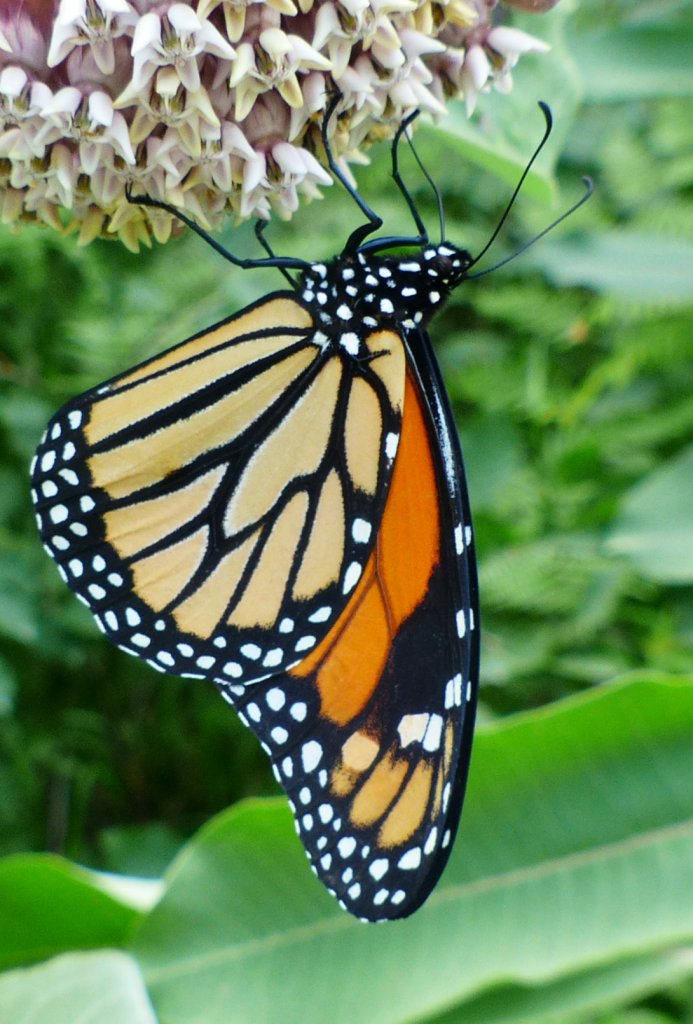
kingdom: Animalia
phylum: Arthropoda
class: Insecta
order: Lepidoptera
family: Nymphalidae
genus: Danaus
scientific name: Danaus plexippus
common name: Monarch
